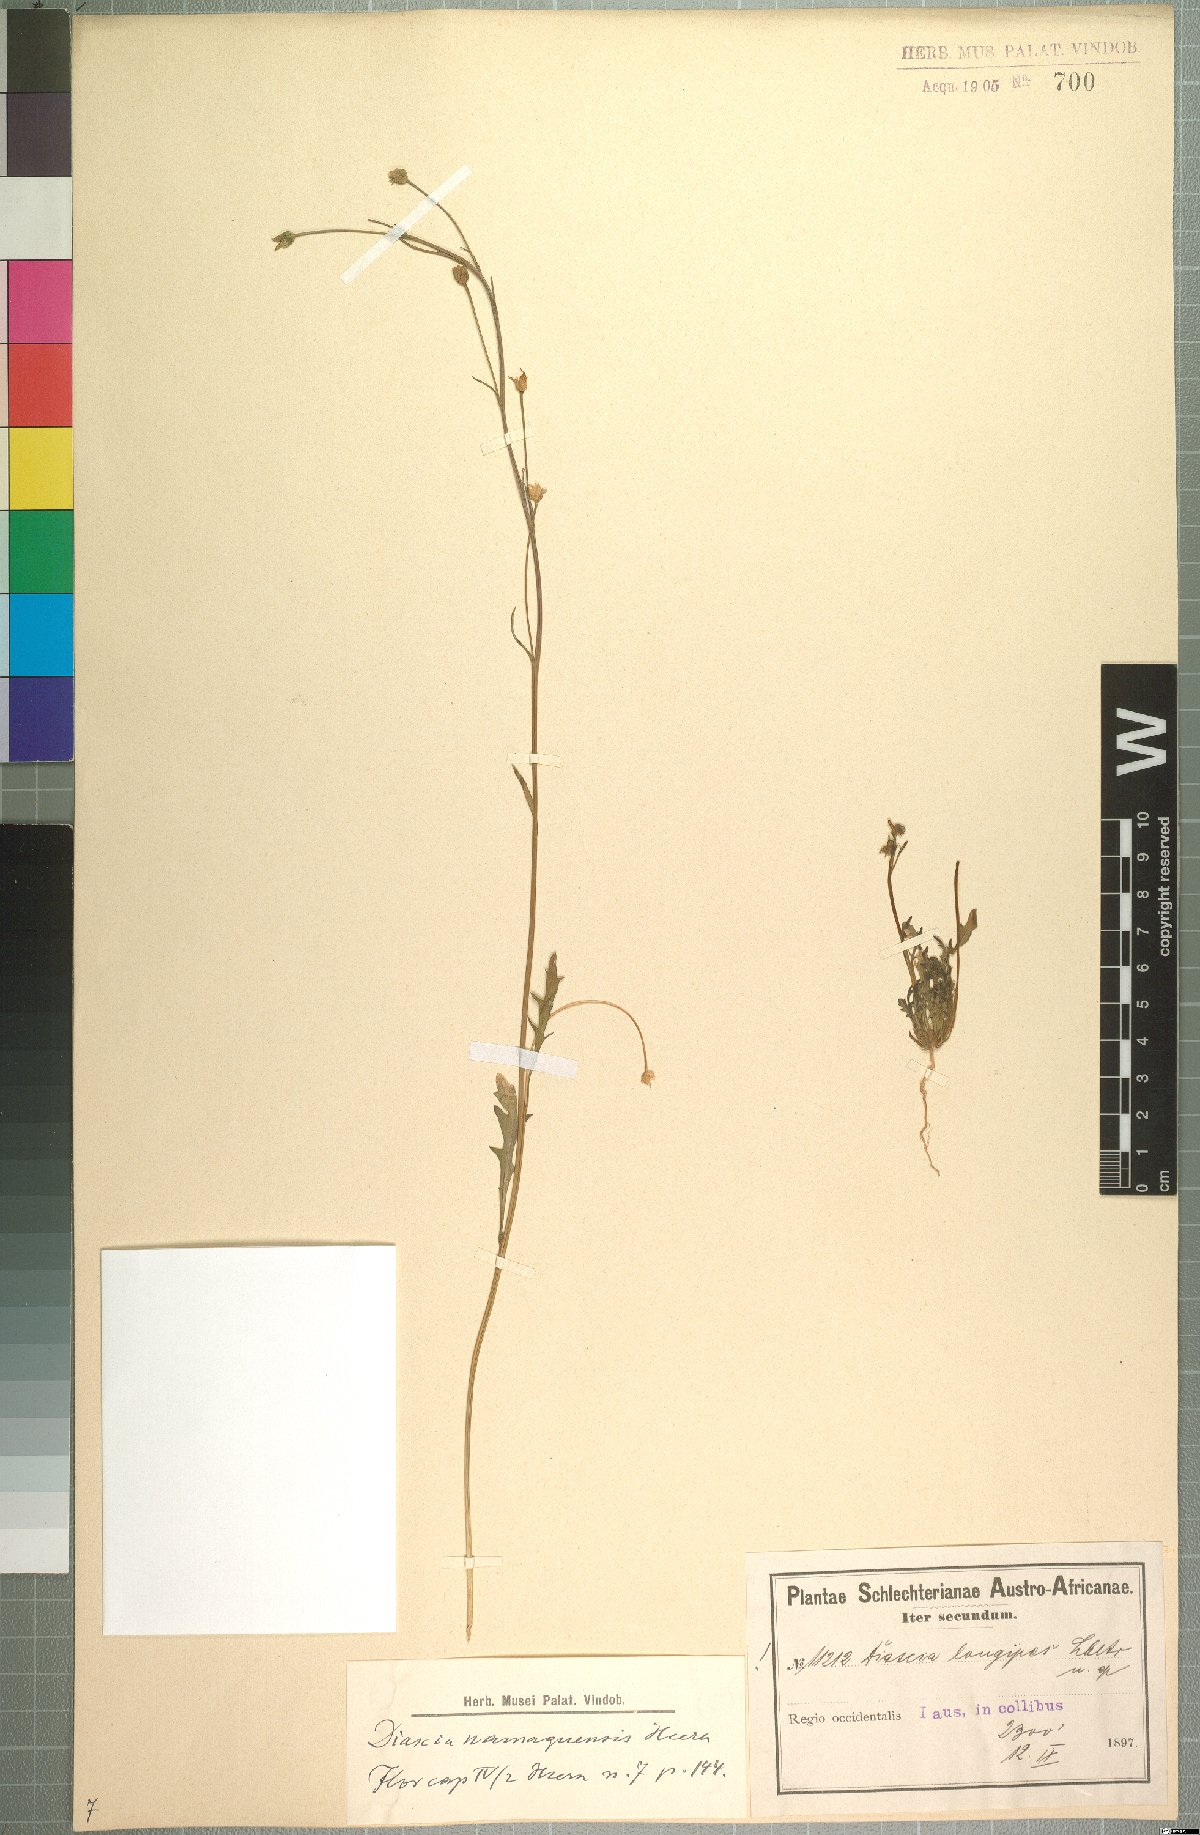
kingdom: Plantae
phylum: Tracheophyta
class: Magnoliopsida
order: Lamiales
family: Scrophulariaceae
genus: Diascia
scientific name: Diascia namaquensis
